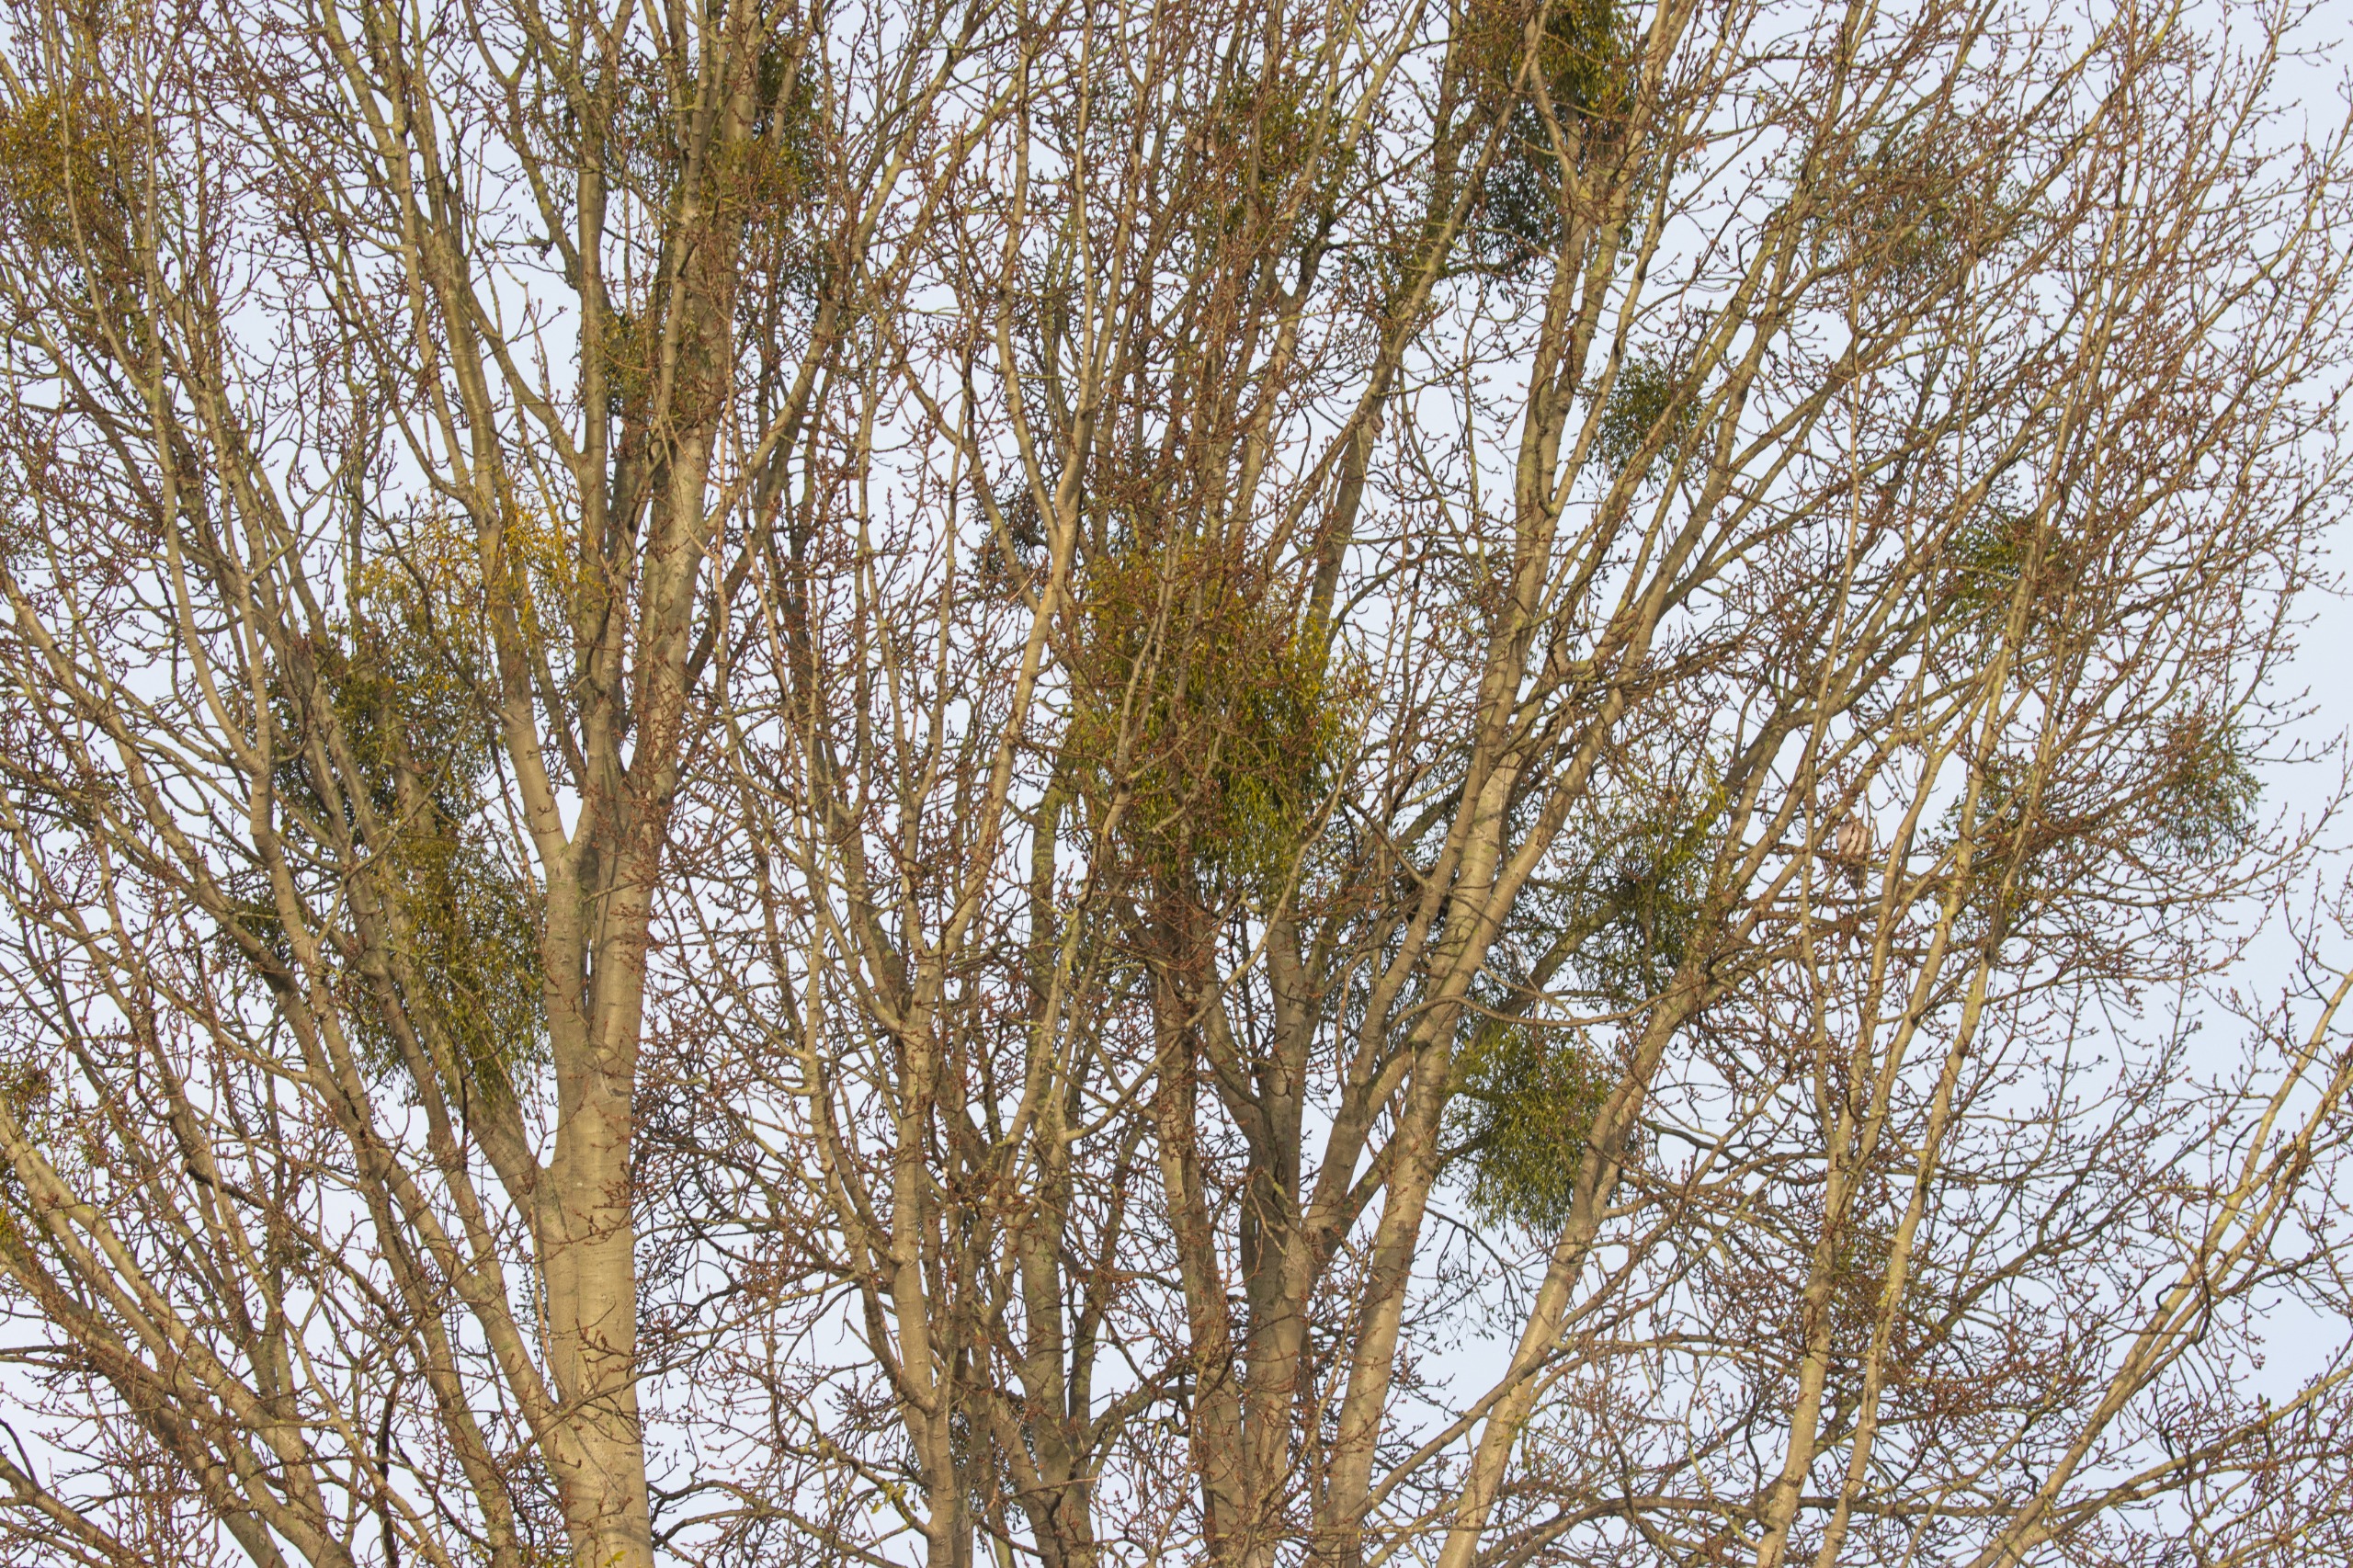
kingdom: Plantae
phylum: Tracheophyta
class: Magnoliopsida
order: Santalales
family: Viscaceae
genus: Viscum
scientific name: Viscum album
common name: Mistelten
